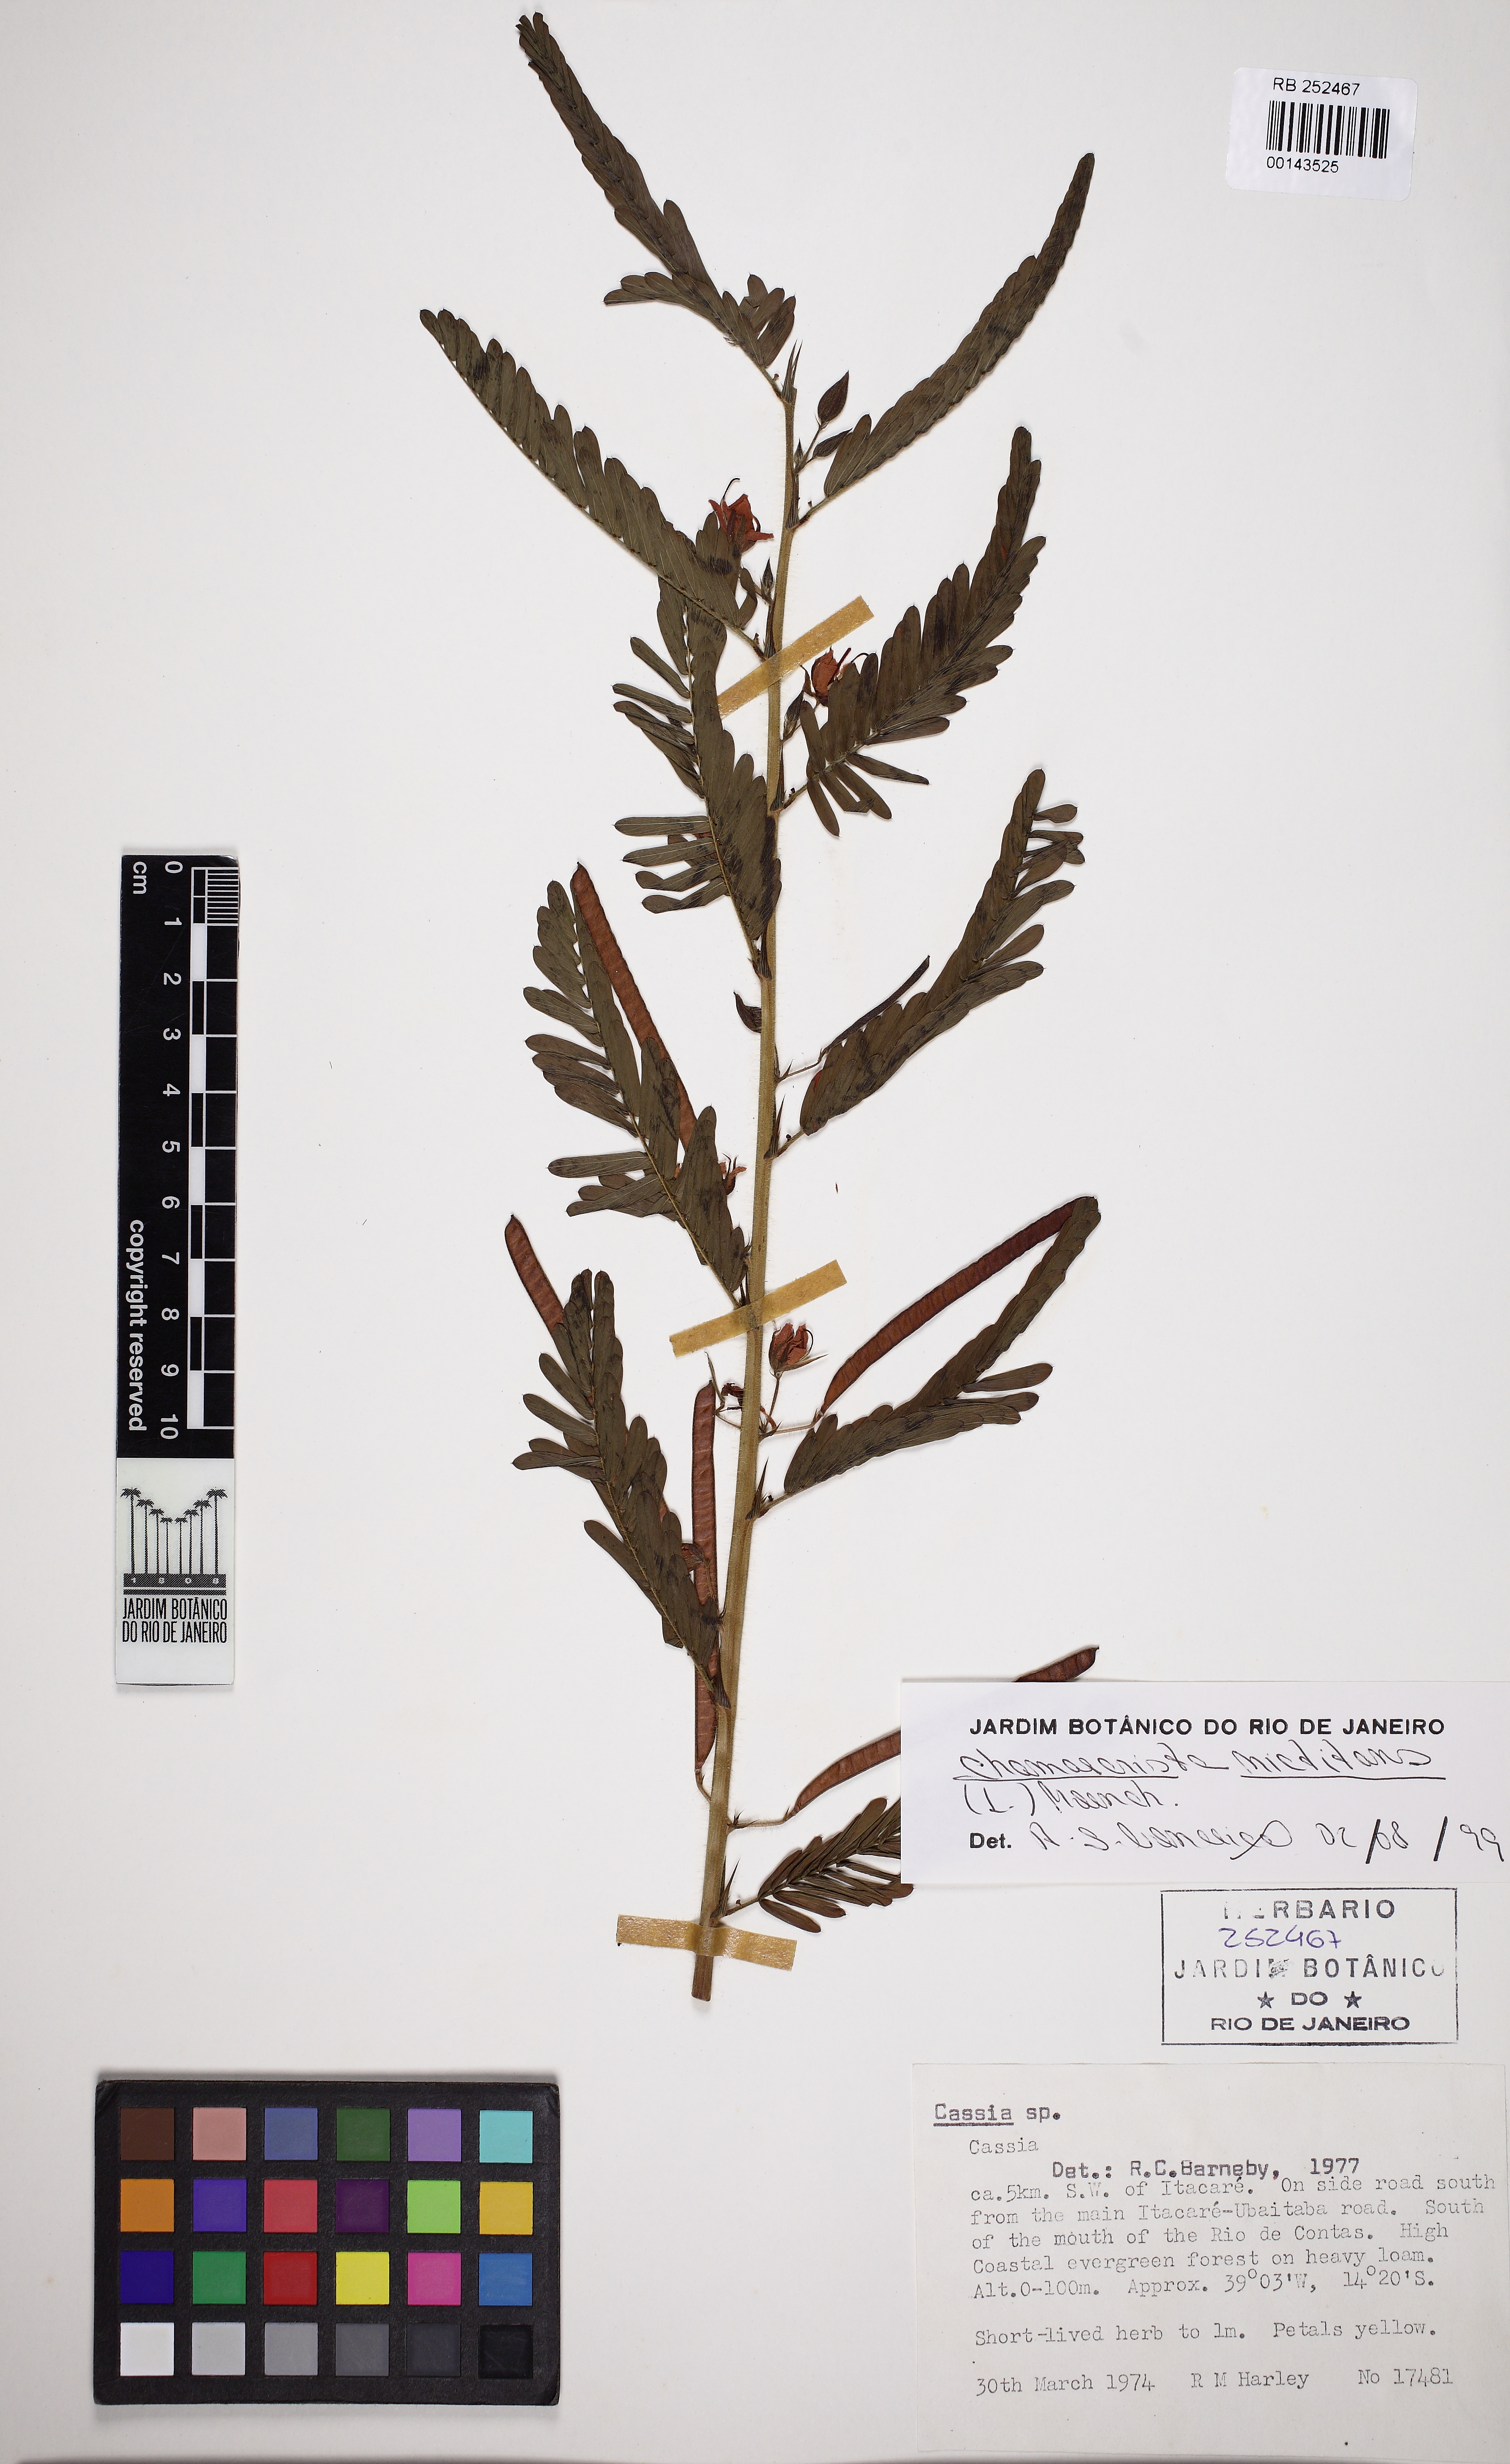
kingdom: Plantae
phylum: Tracheophyta
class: Magnoliopsida
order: Fabales
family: Fabaceae
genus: Chamaecrista
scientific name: Chamaecrista nictitans
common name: Sensitive cassia
